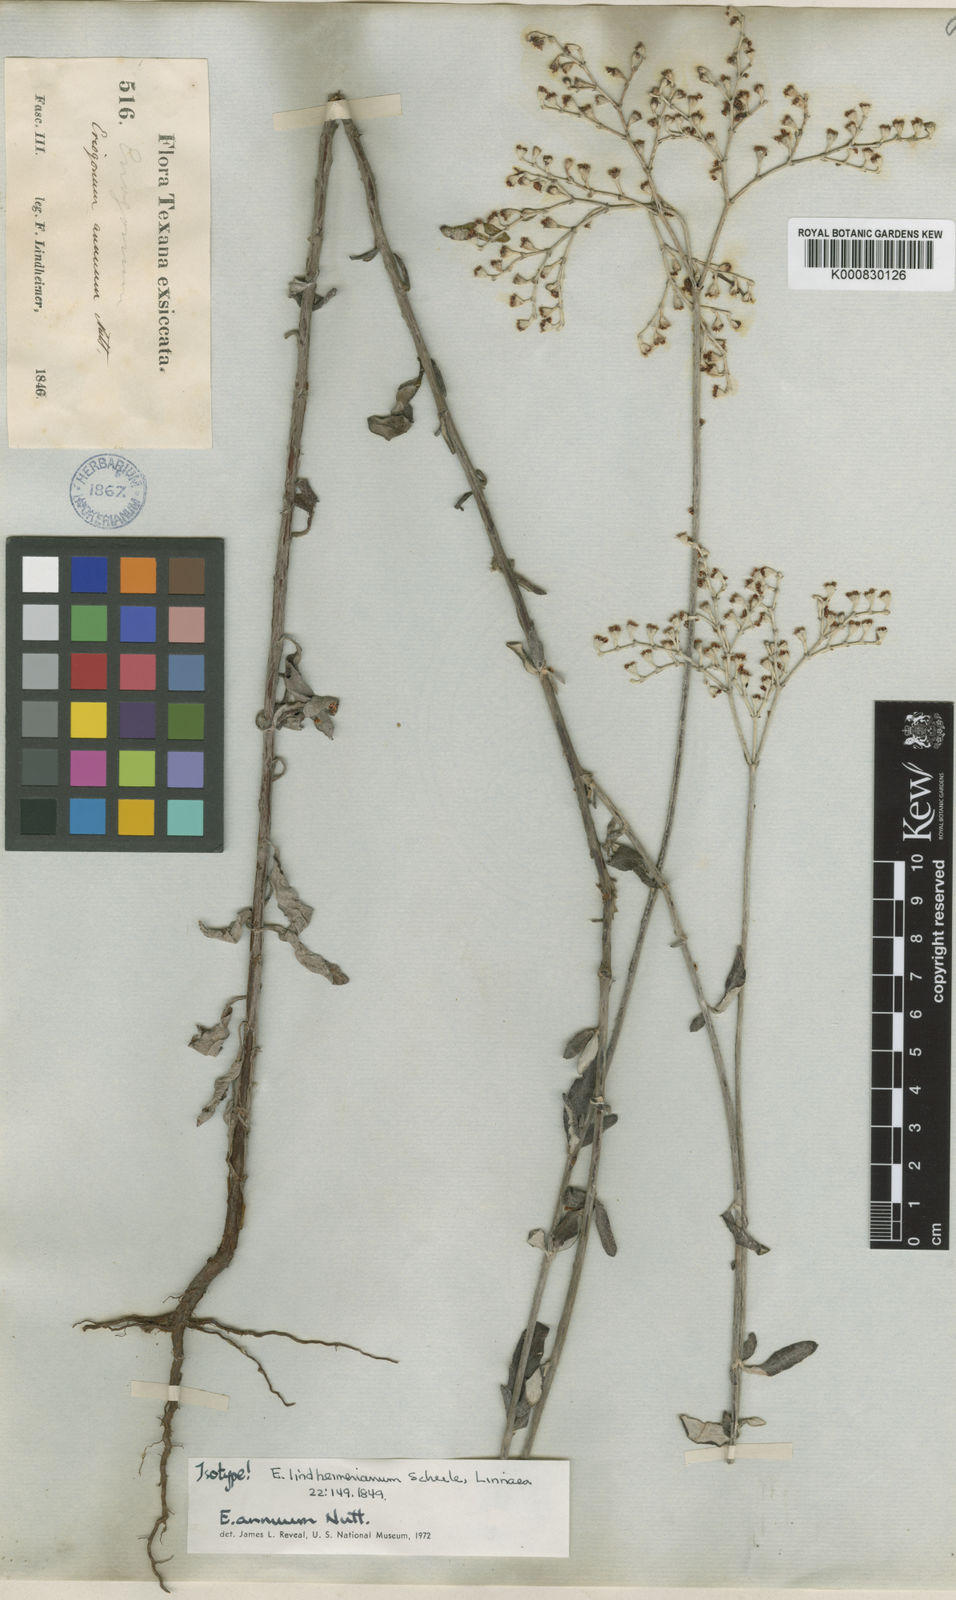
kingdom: Plantae
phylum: Tracheophyta
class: Magnoliopsida
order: Caryophyllales
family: Polygonaceae
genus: Eriogonum
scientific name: Eriogonum annuum
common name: Annual wild buckwheat
